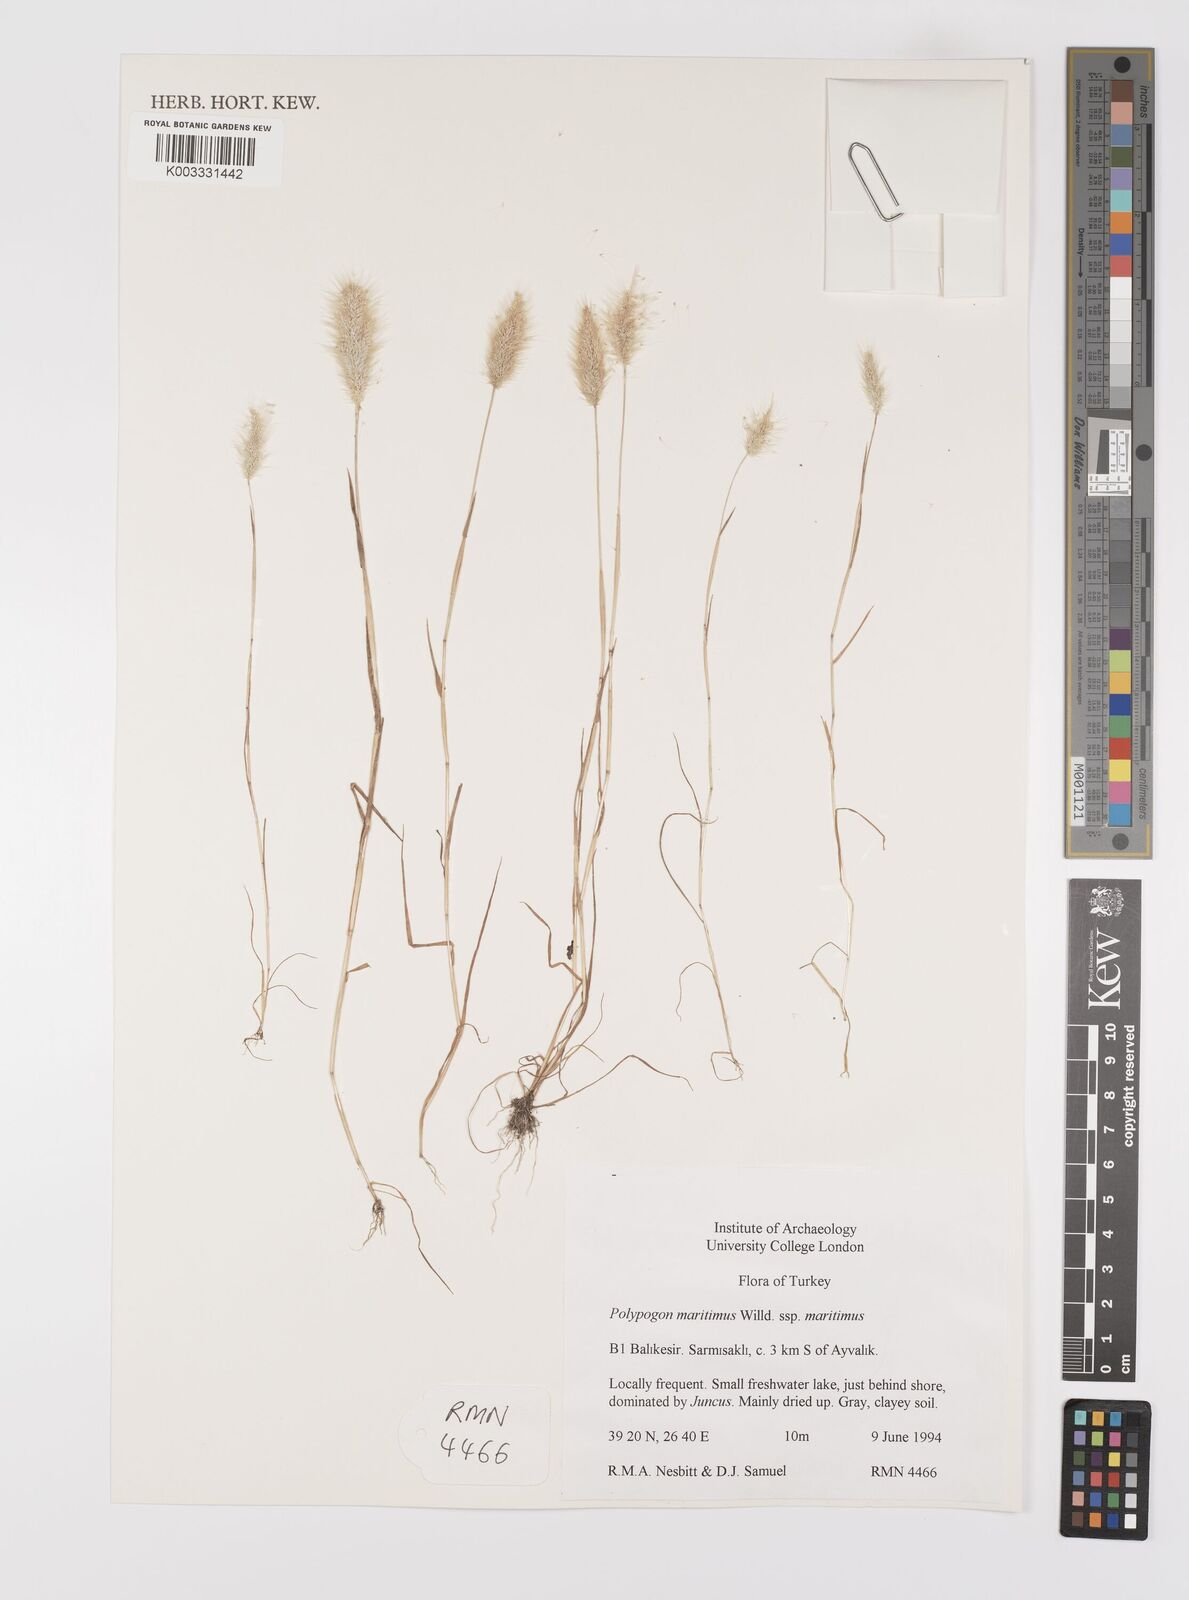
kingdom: Plantae
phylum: Tracheophyta
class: Liliopsida
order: Poales
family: Poaceae
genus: Polypogon
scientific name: Polypogon maritimus
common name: Mediterranean rabbitsfoot grass
